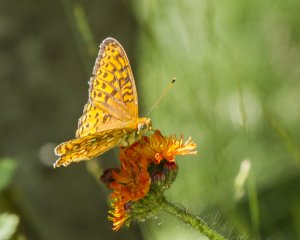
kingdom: Animalia
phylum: Arthropoda
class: Insecta
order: Lepidoptera
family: Nymphalidae
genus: Speyeria
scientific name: Speyeria atlantis
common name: Atlantis Fritillary
